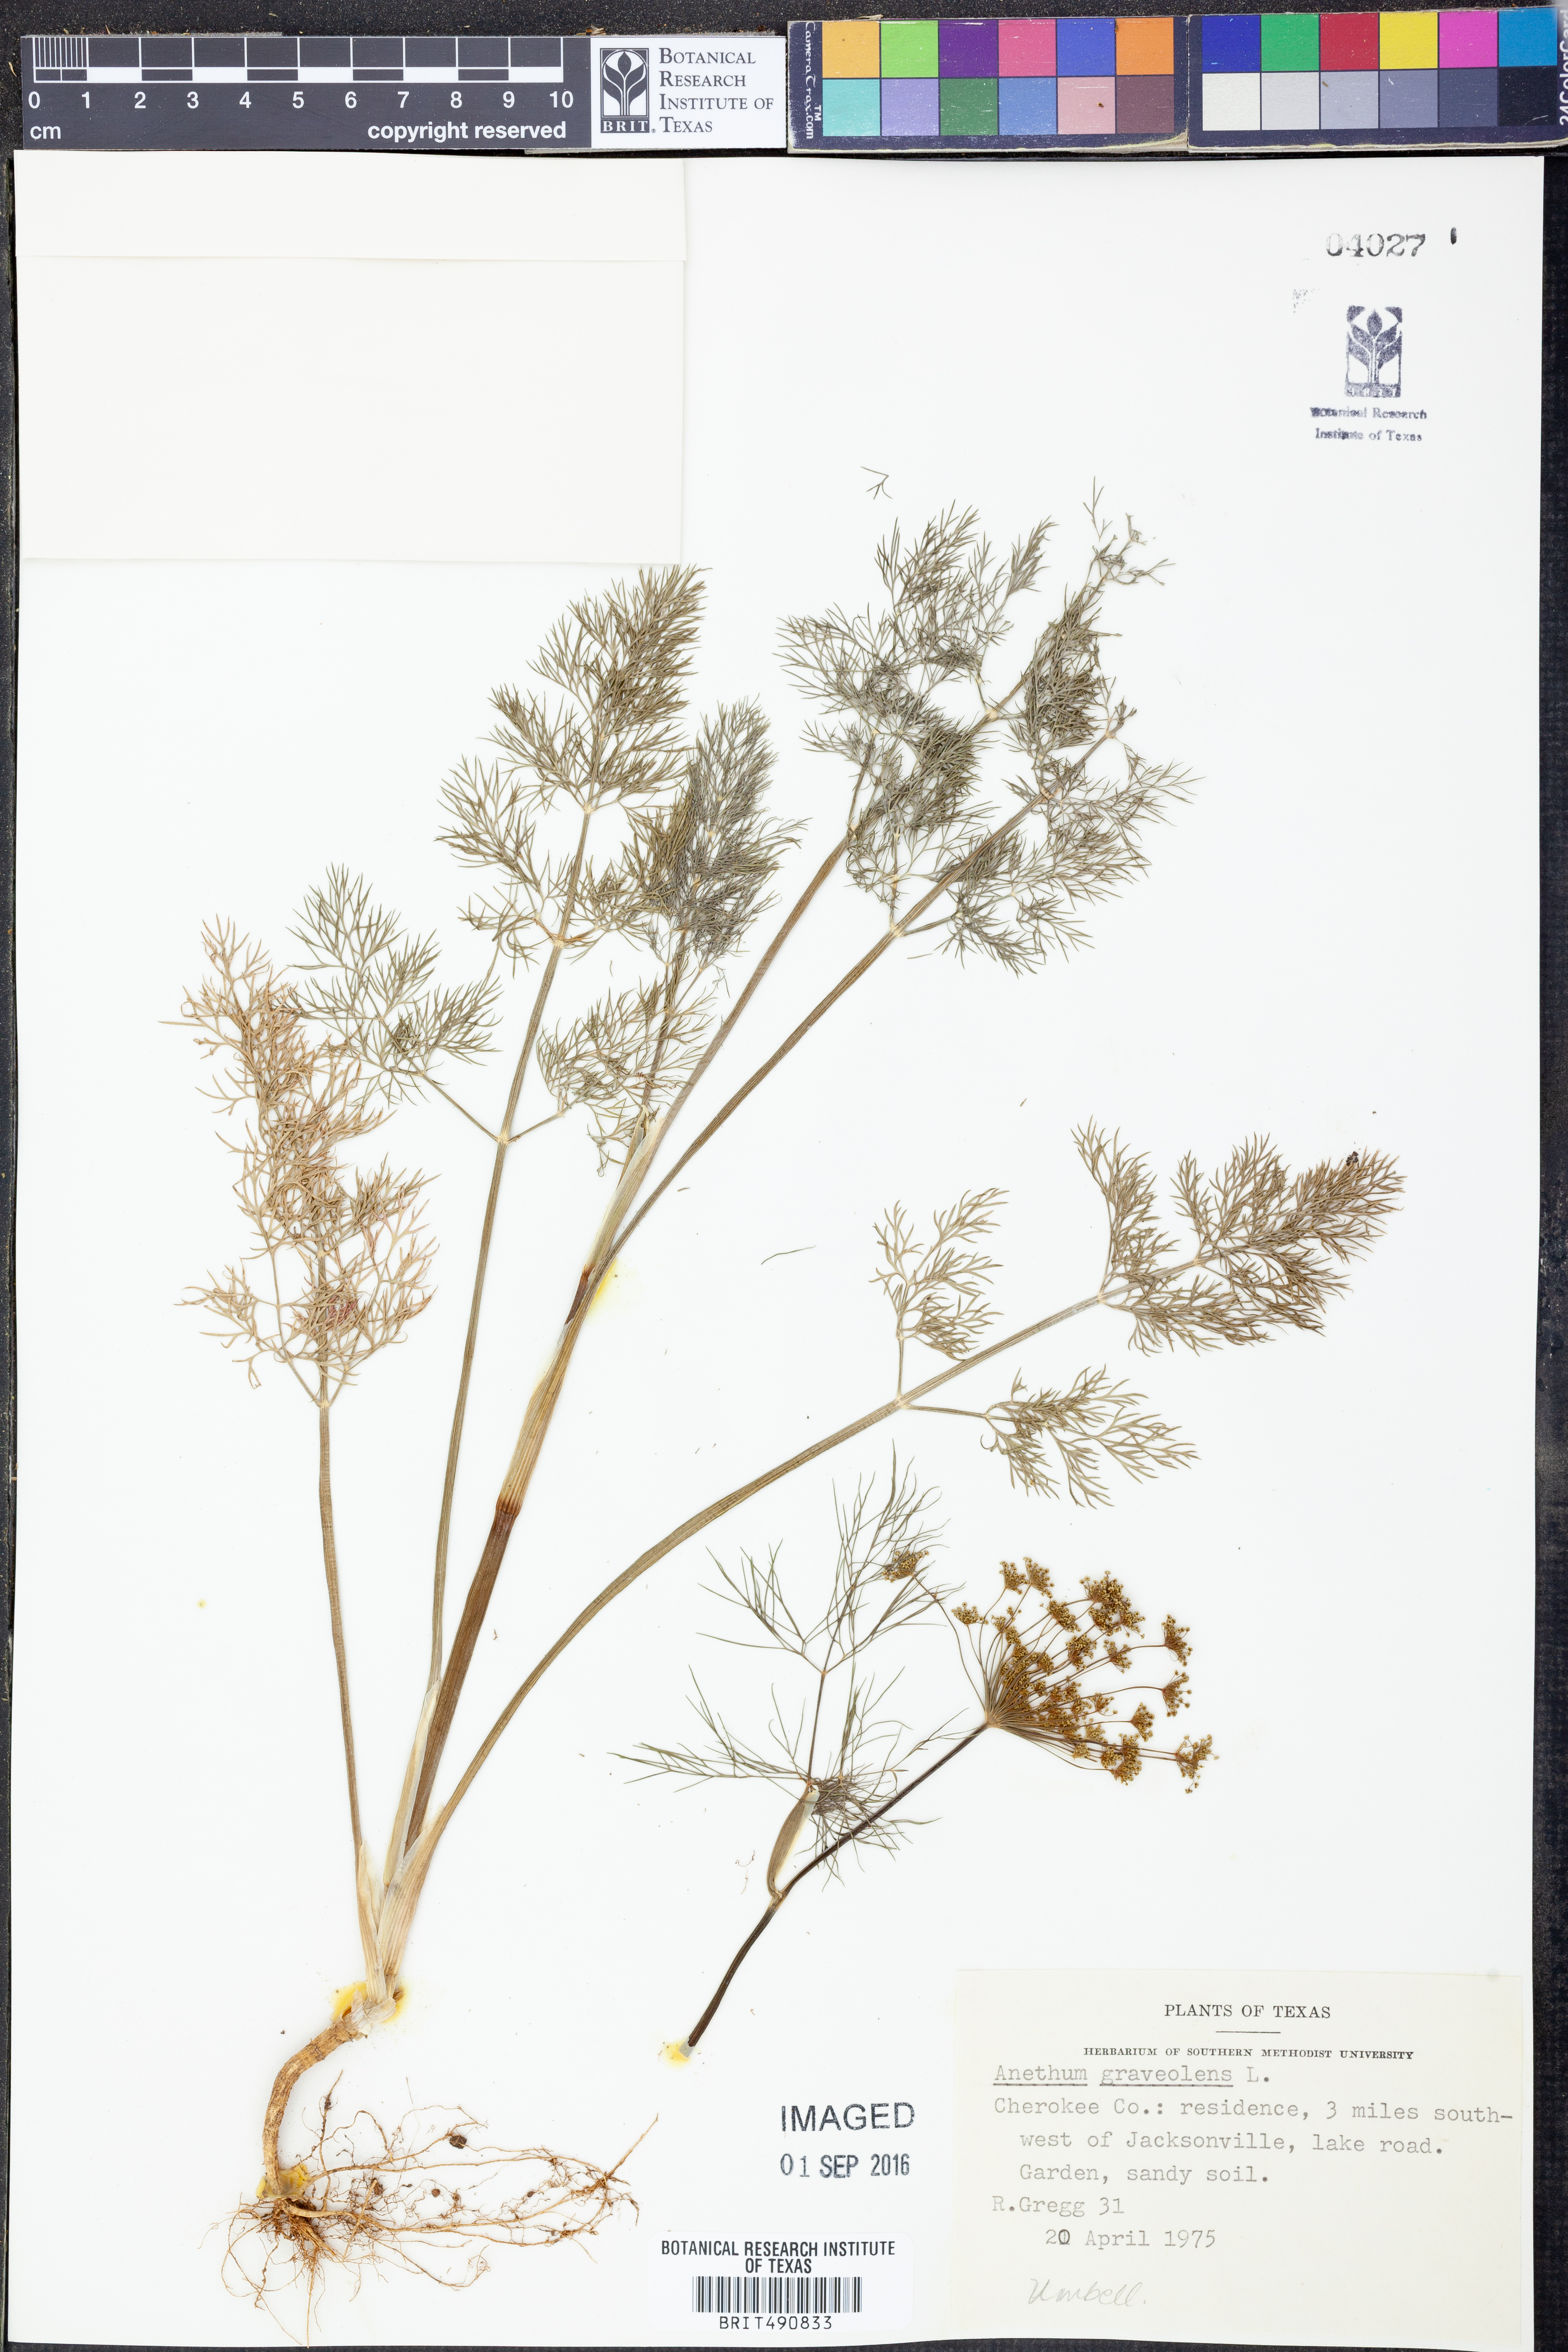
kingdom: Plantae
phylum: Tracheophyta
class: Magnoliopsida
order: Apiales
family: Apiaceae
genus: Anethum
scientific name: Anethum graveolens
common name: Dill
